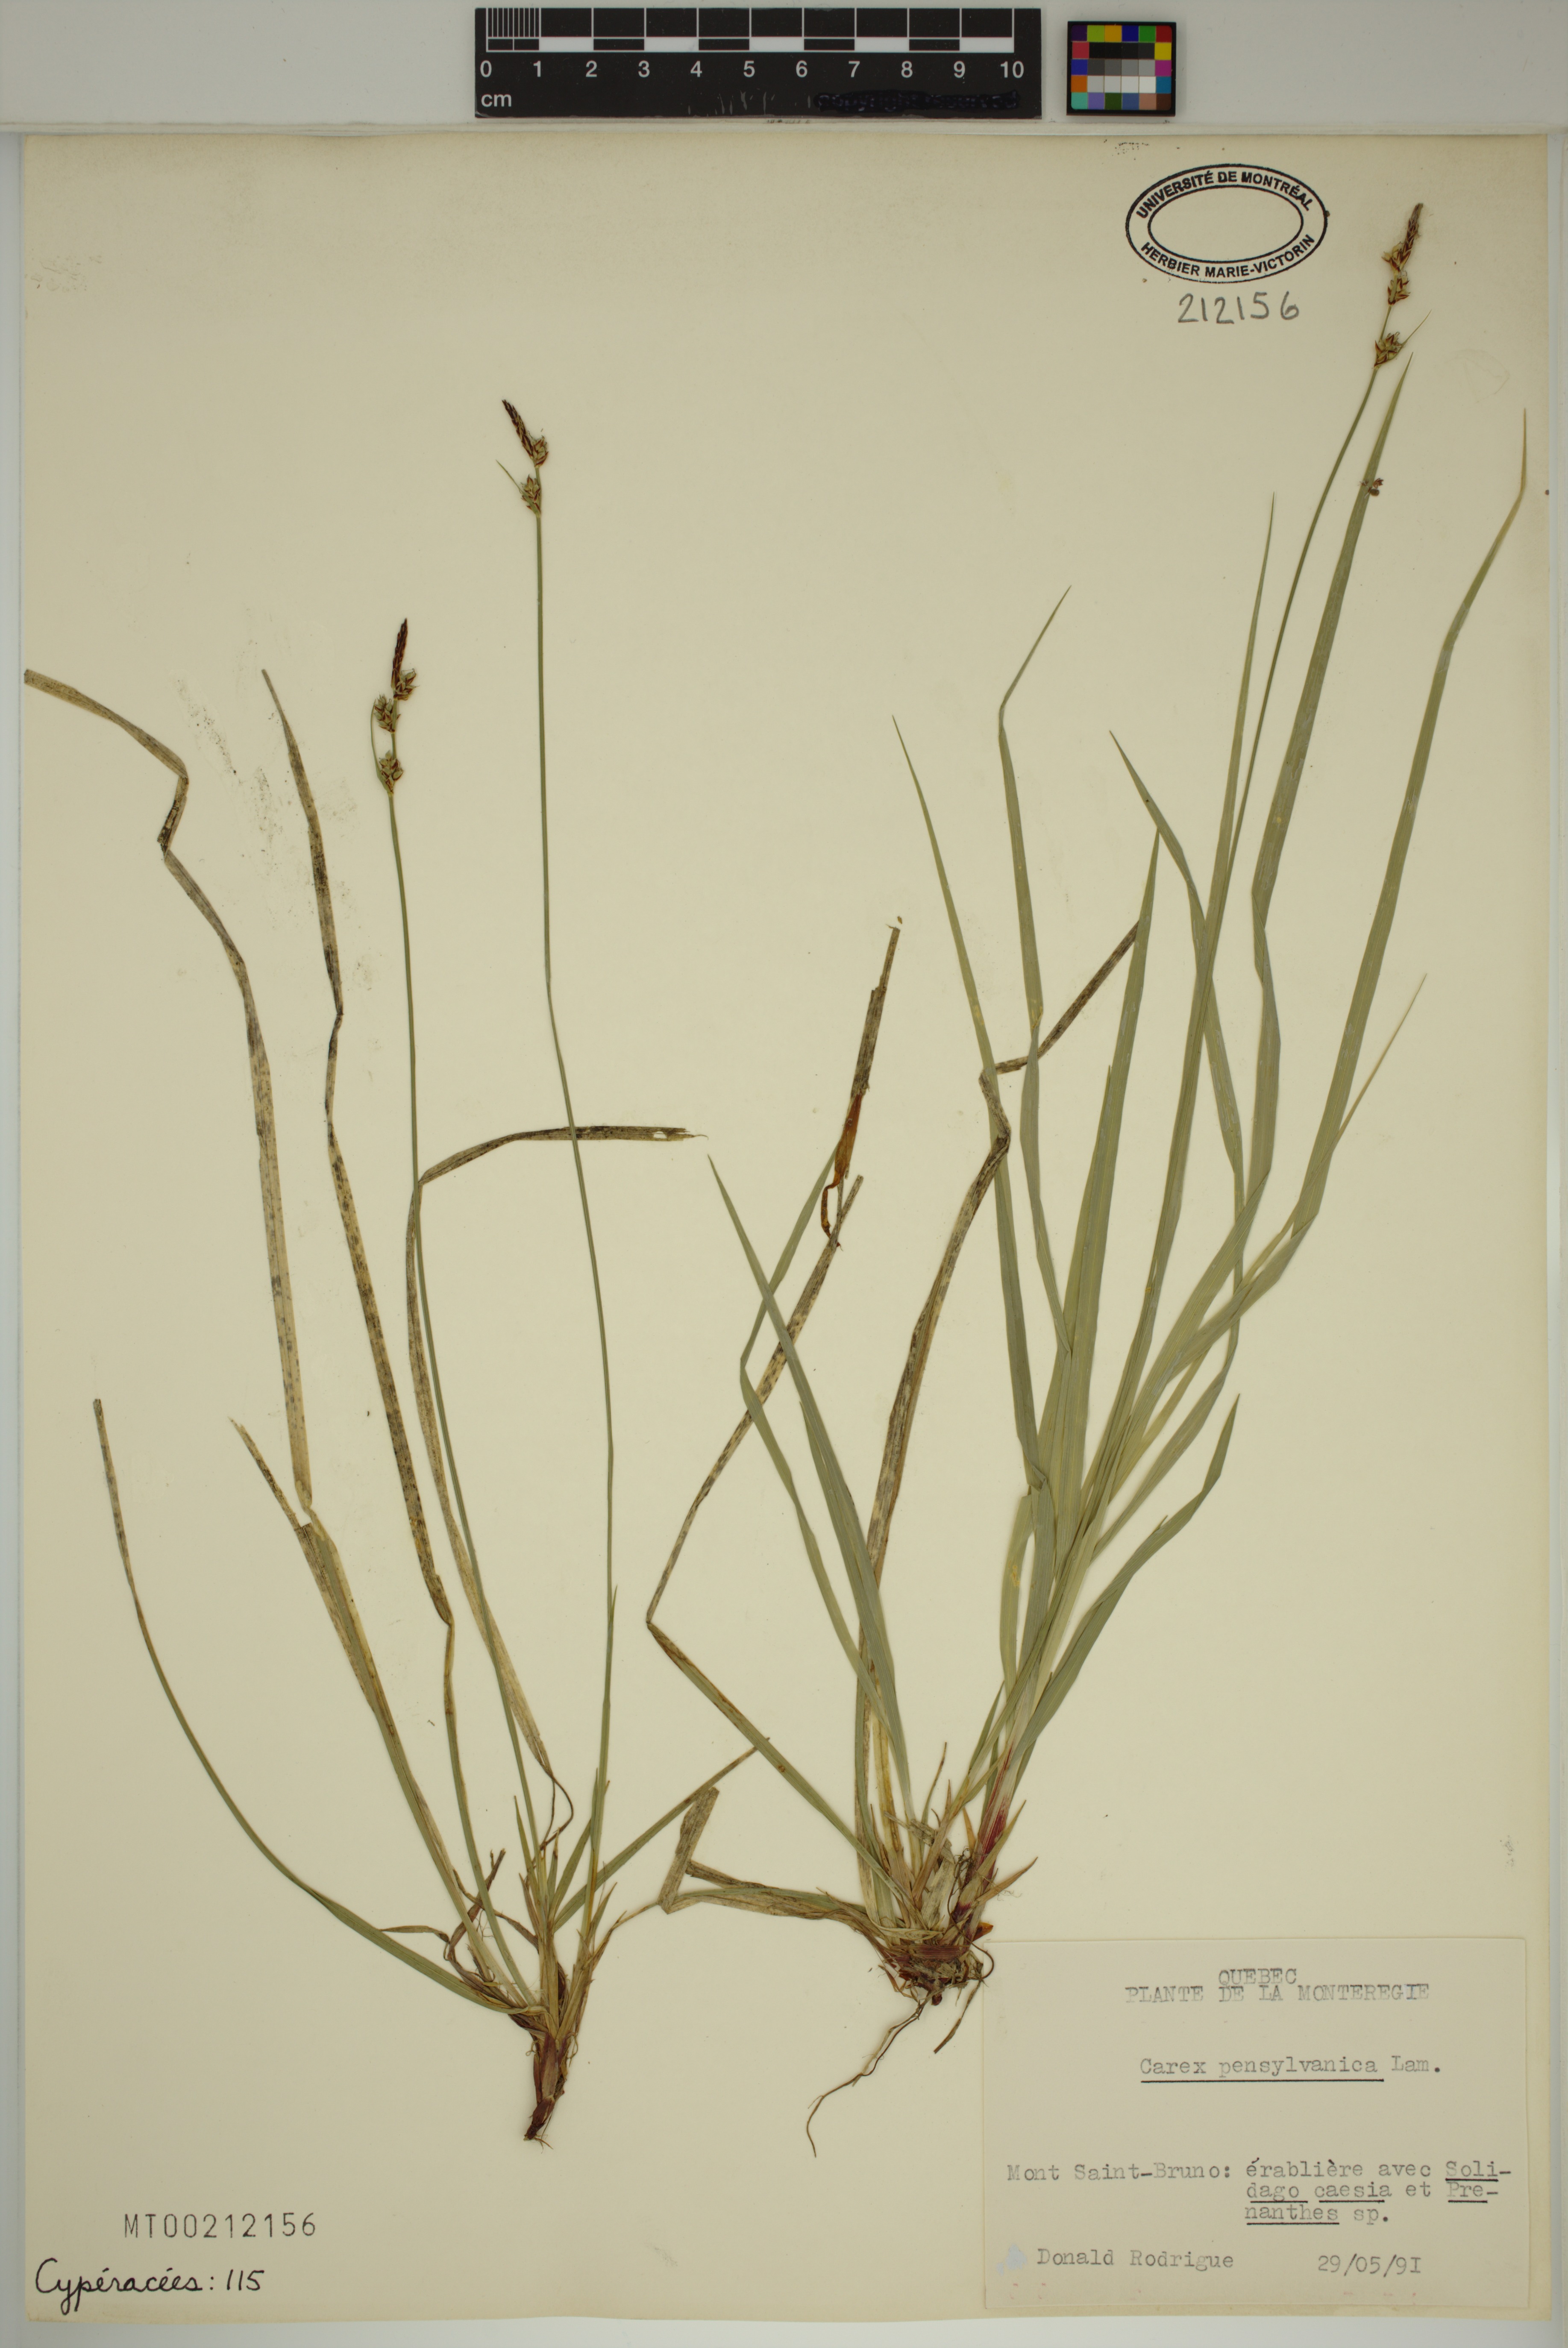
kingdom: Plantae
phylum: Tracheophyta
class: Liliopsida
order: Poales
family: Cyperaceae
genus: Carex
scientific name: Carex pensylvanica
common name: Common oak sedge
